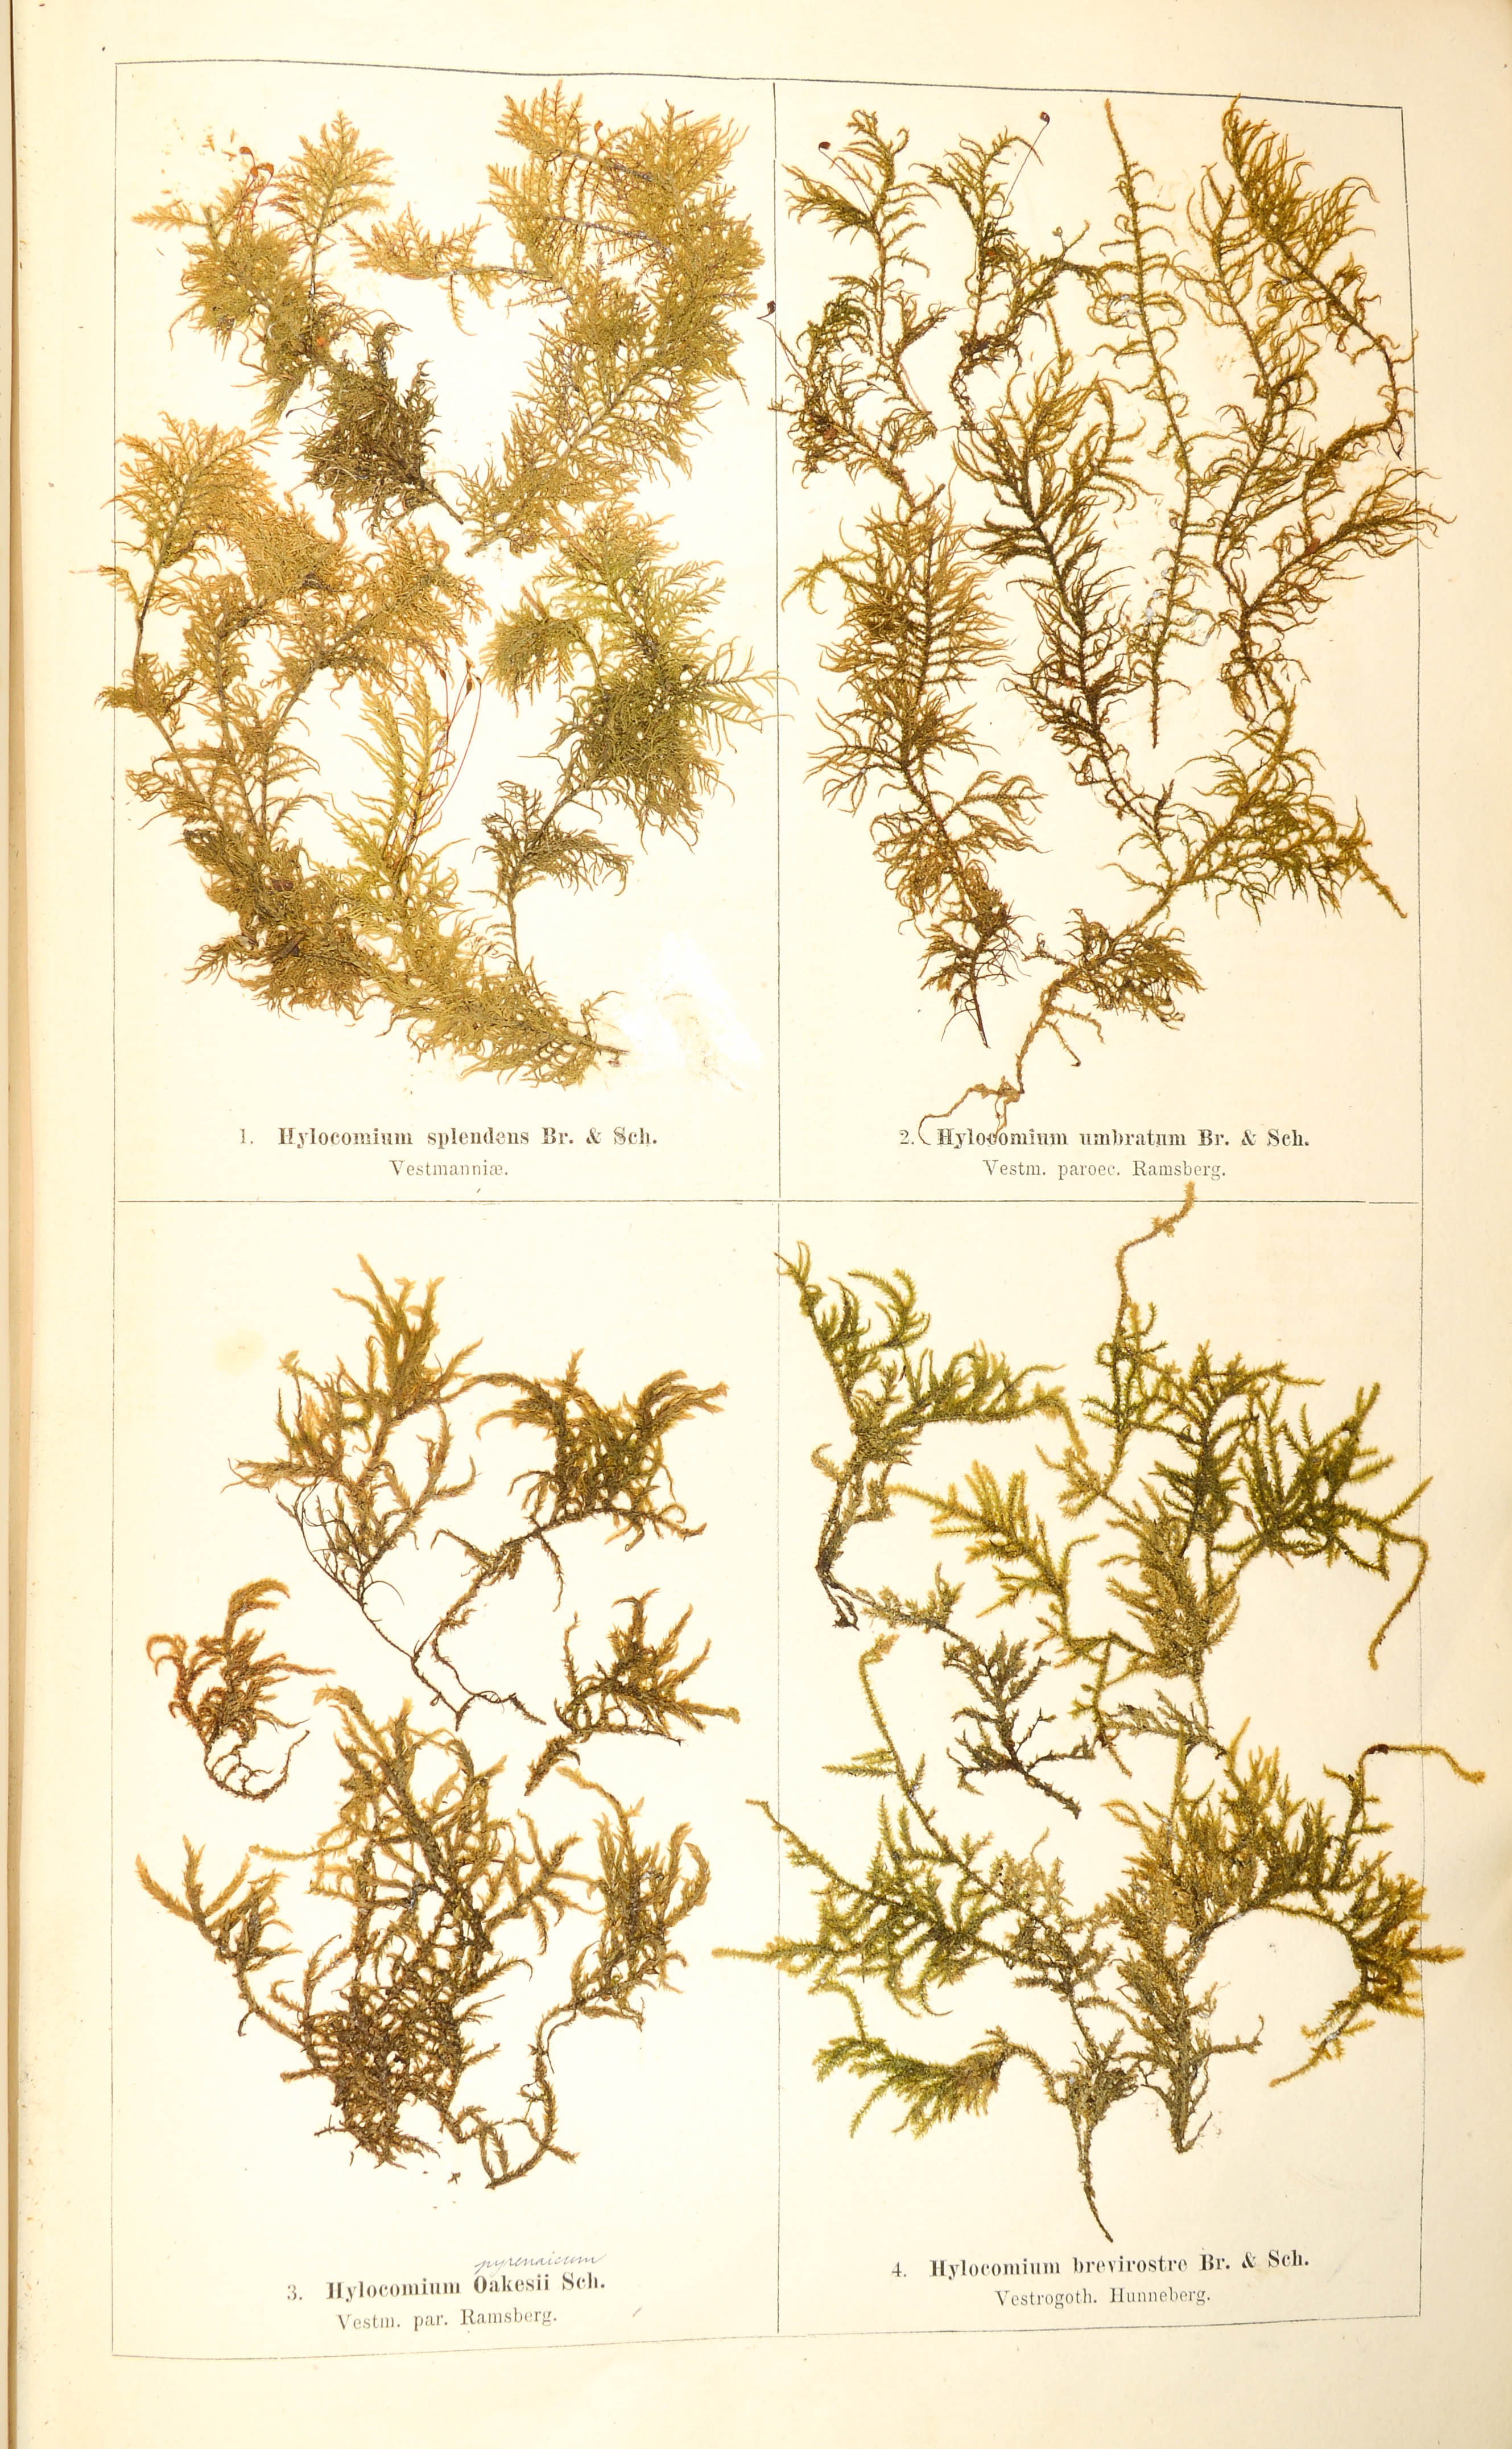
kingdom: Plantae
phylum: Bryophyta
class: Bryopsida
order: Hypnales
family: Hylocomiaceae
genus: Hylocomium
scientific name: Hylocomium splendens
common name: Stairstep moss
